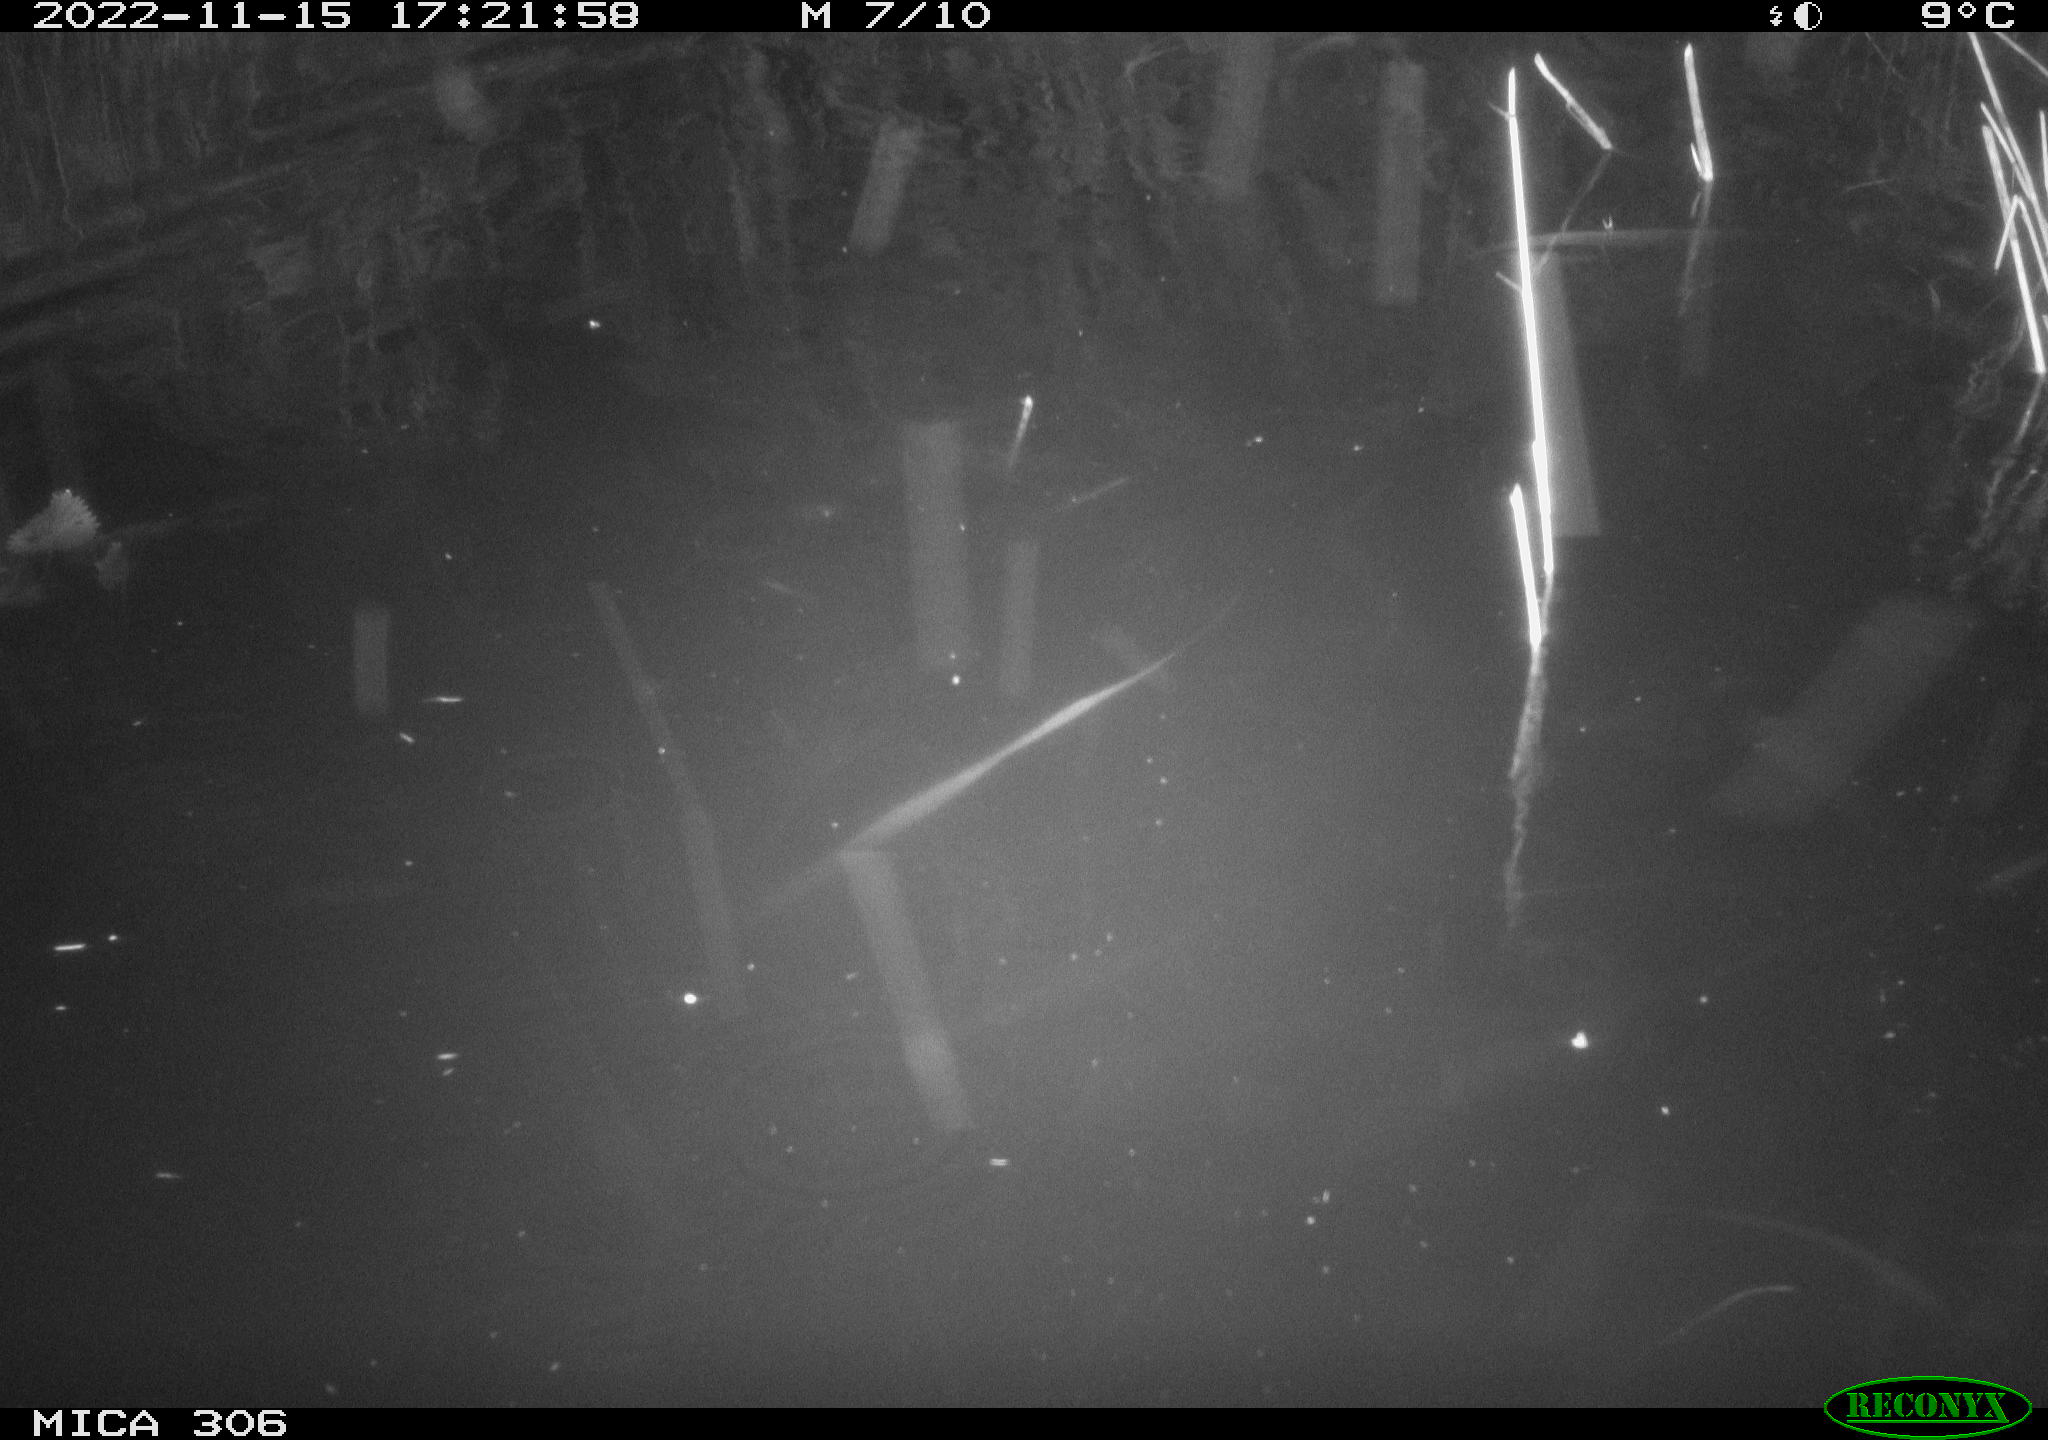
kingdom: Animalia
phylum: Chordata
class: Mammalia
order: Rodentia
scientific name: Rodentia
